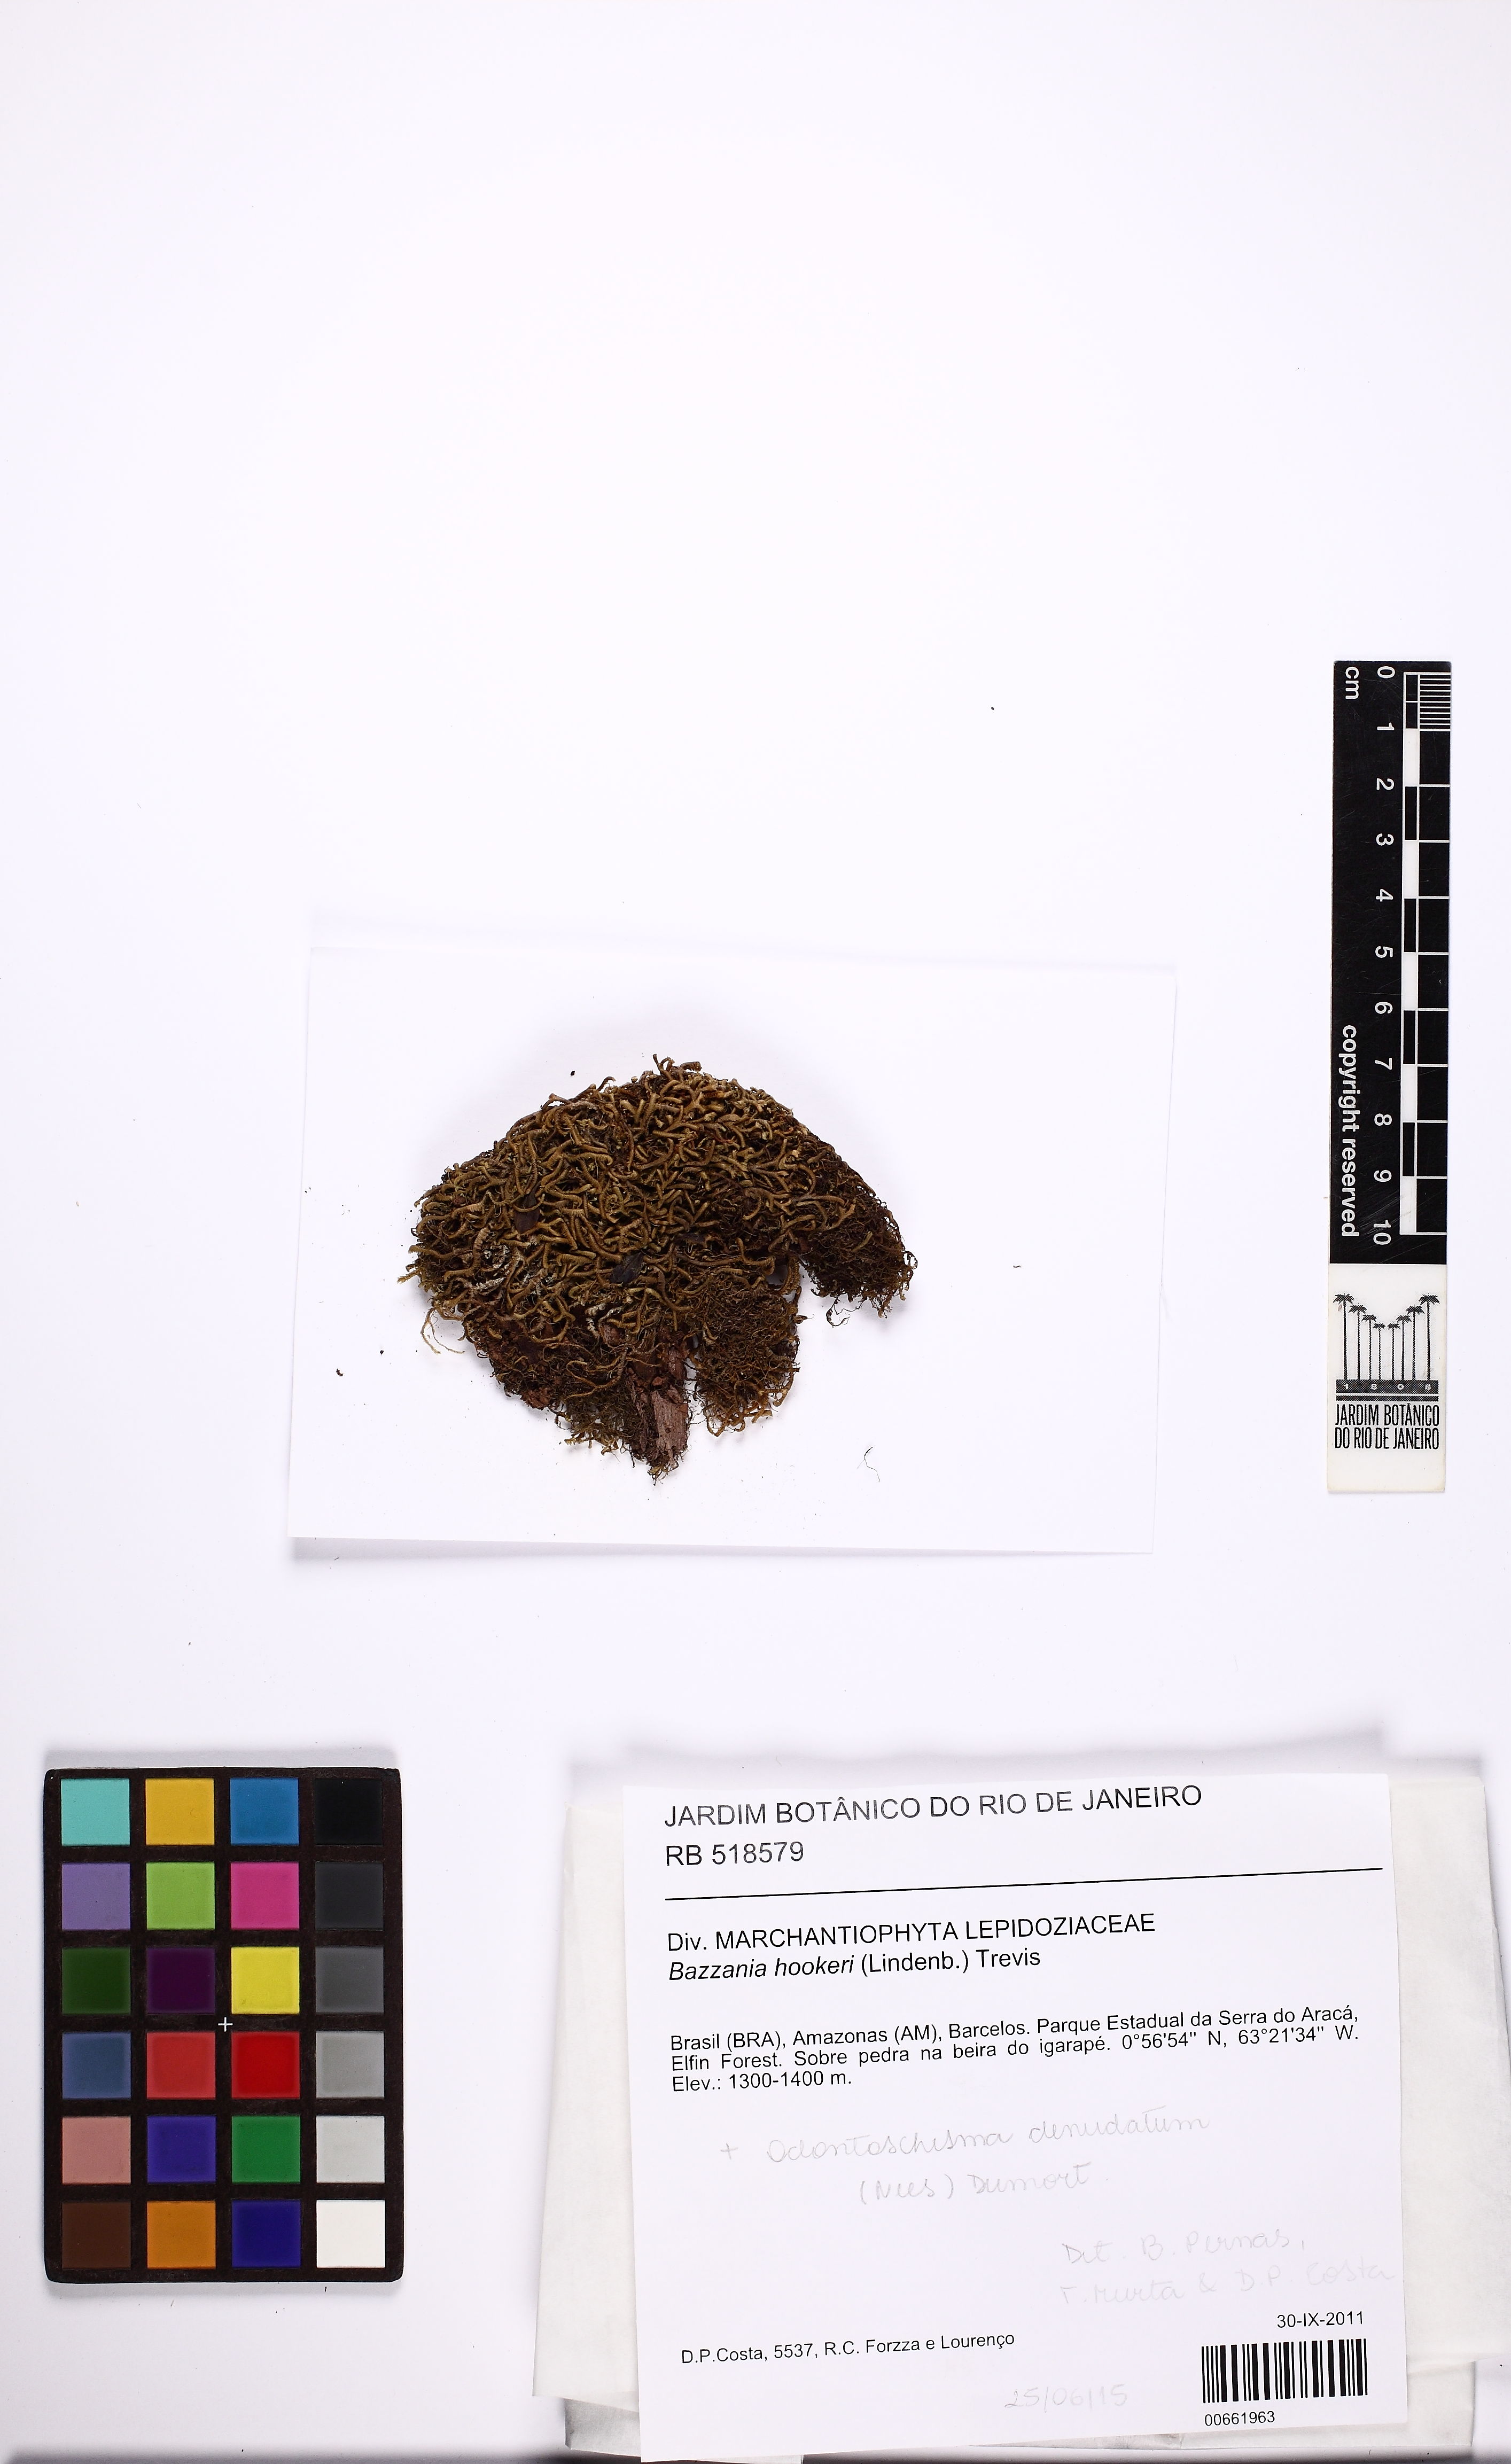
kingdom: Plantae
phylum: Marchantiophyta
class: Jungermanniopsida
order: Jungermanniales
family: Lepidoziaceae
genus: Bazzania
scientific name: Bazzania hookeri
